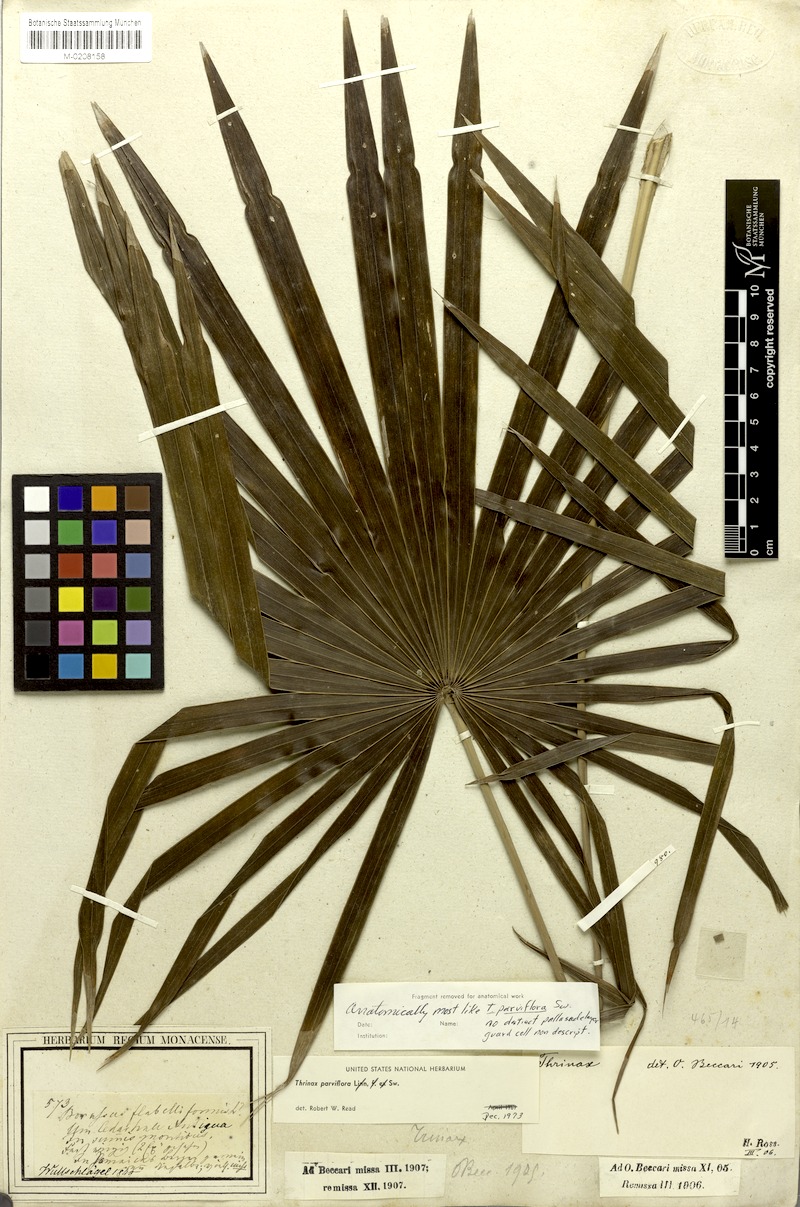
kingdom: Plantae
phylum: Tracheophyta
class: Liliopsida
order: Arecales
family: Arecaceae
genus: Thrinax
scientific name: Thrinax parviflora
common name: Broom palm
